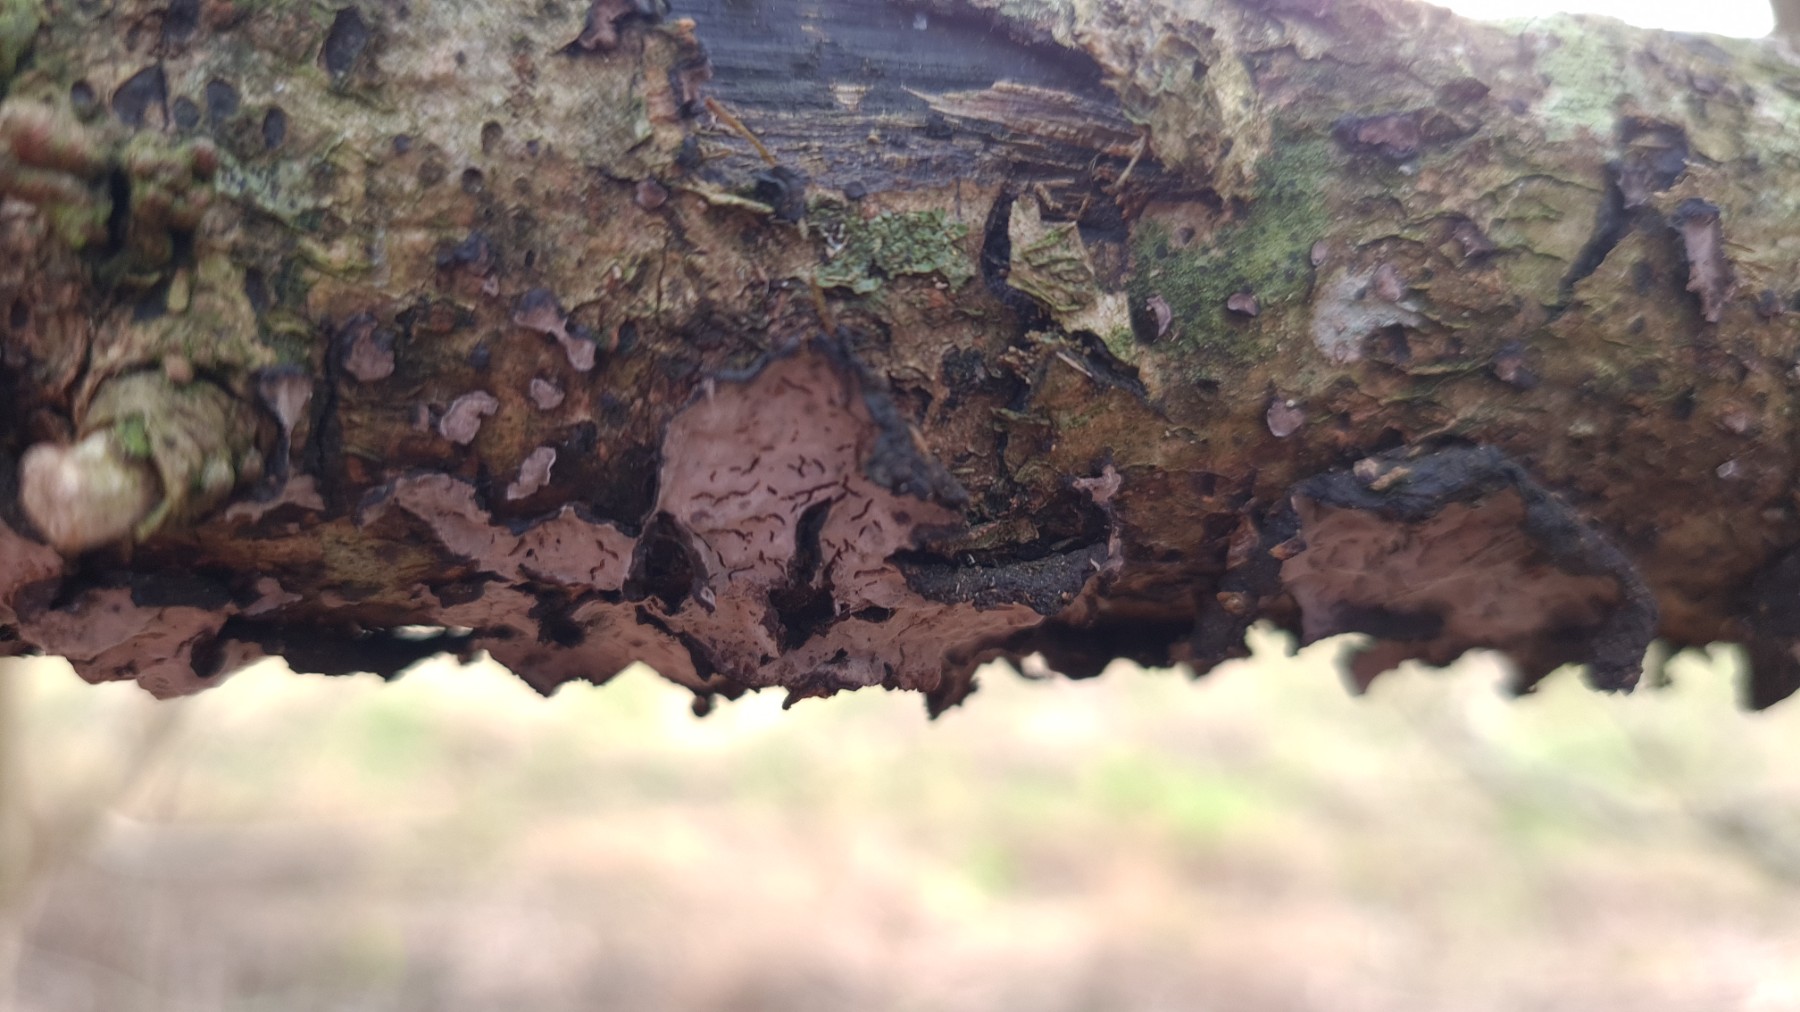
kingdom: Fungi
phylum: Basidiomycota
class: Agaricomycetes
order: Russulales
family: Peniophoraceae
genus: Peniophora
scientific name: Peniophora quercina
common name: ege-voksskind
